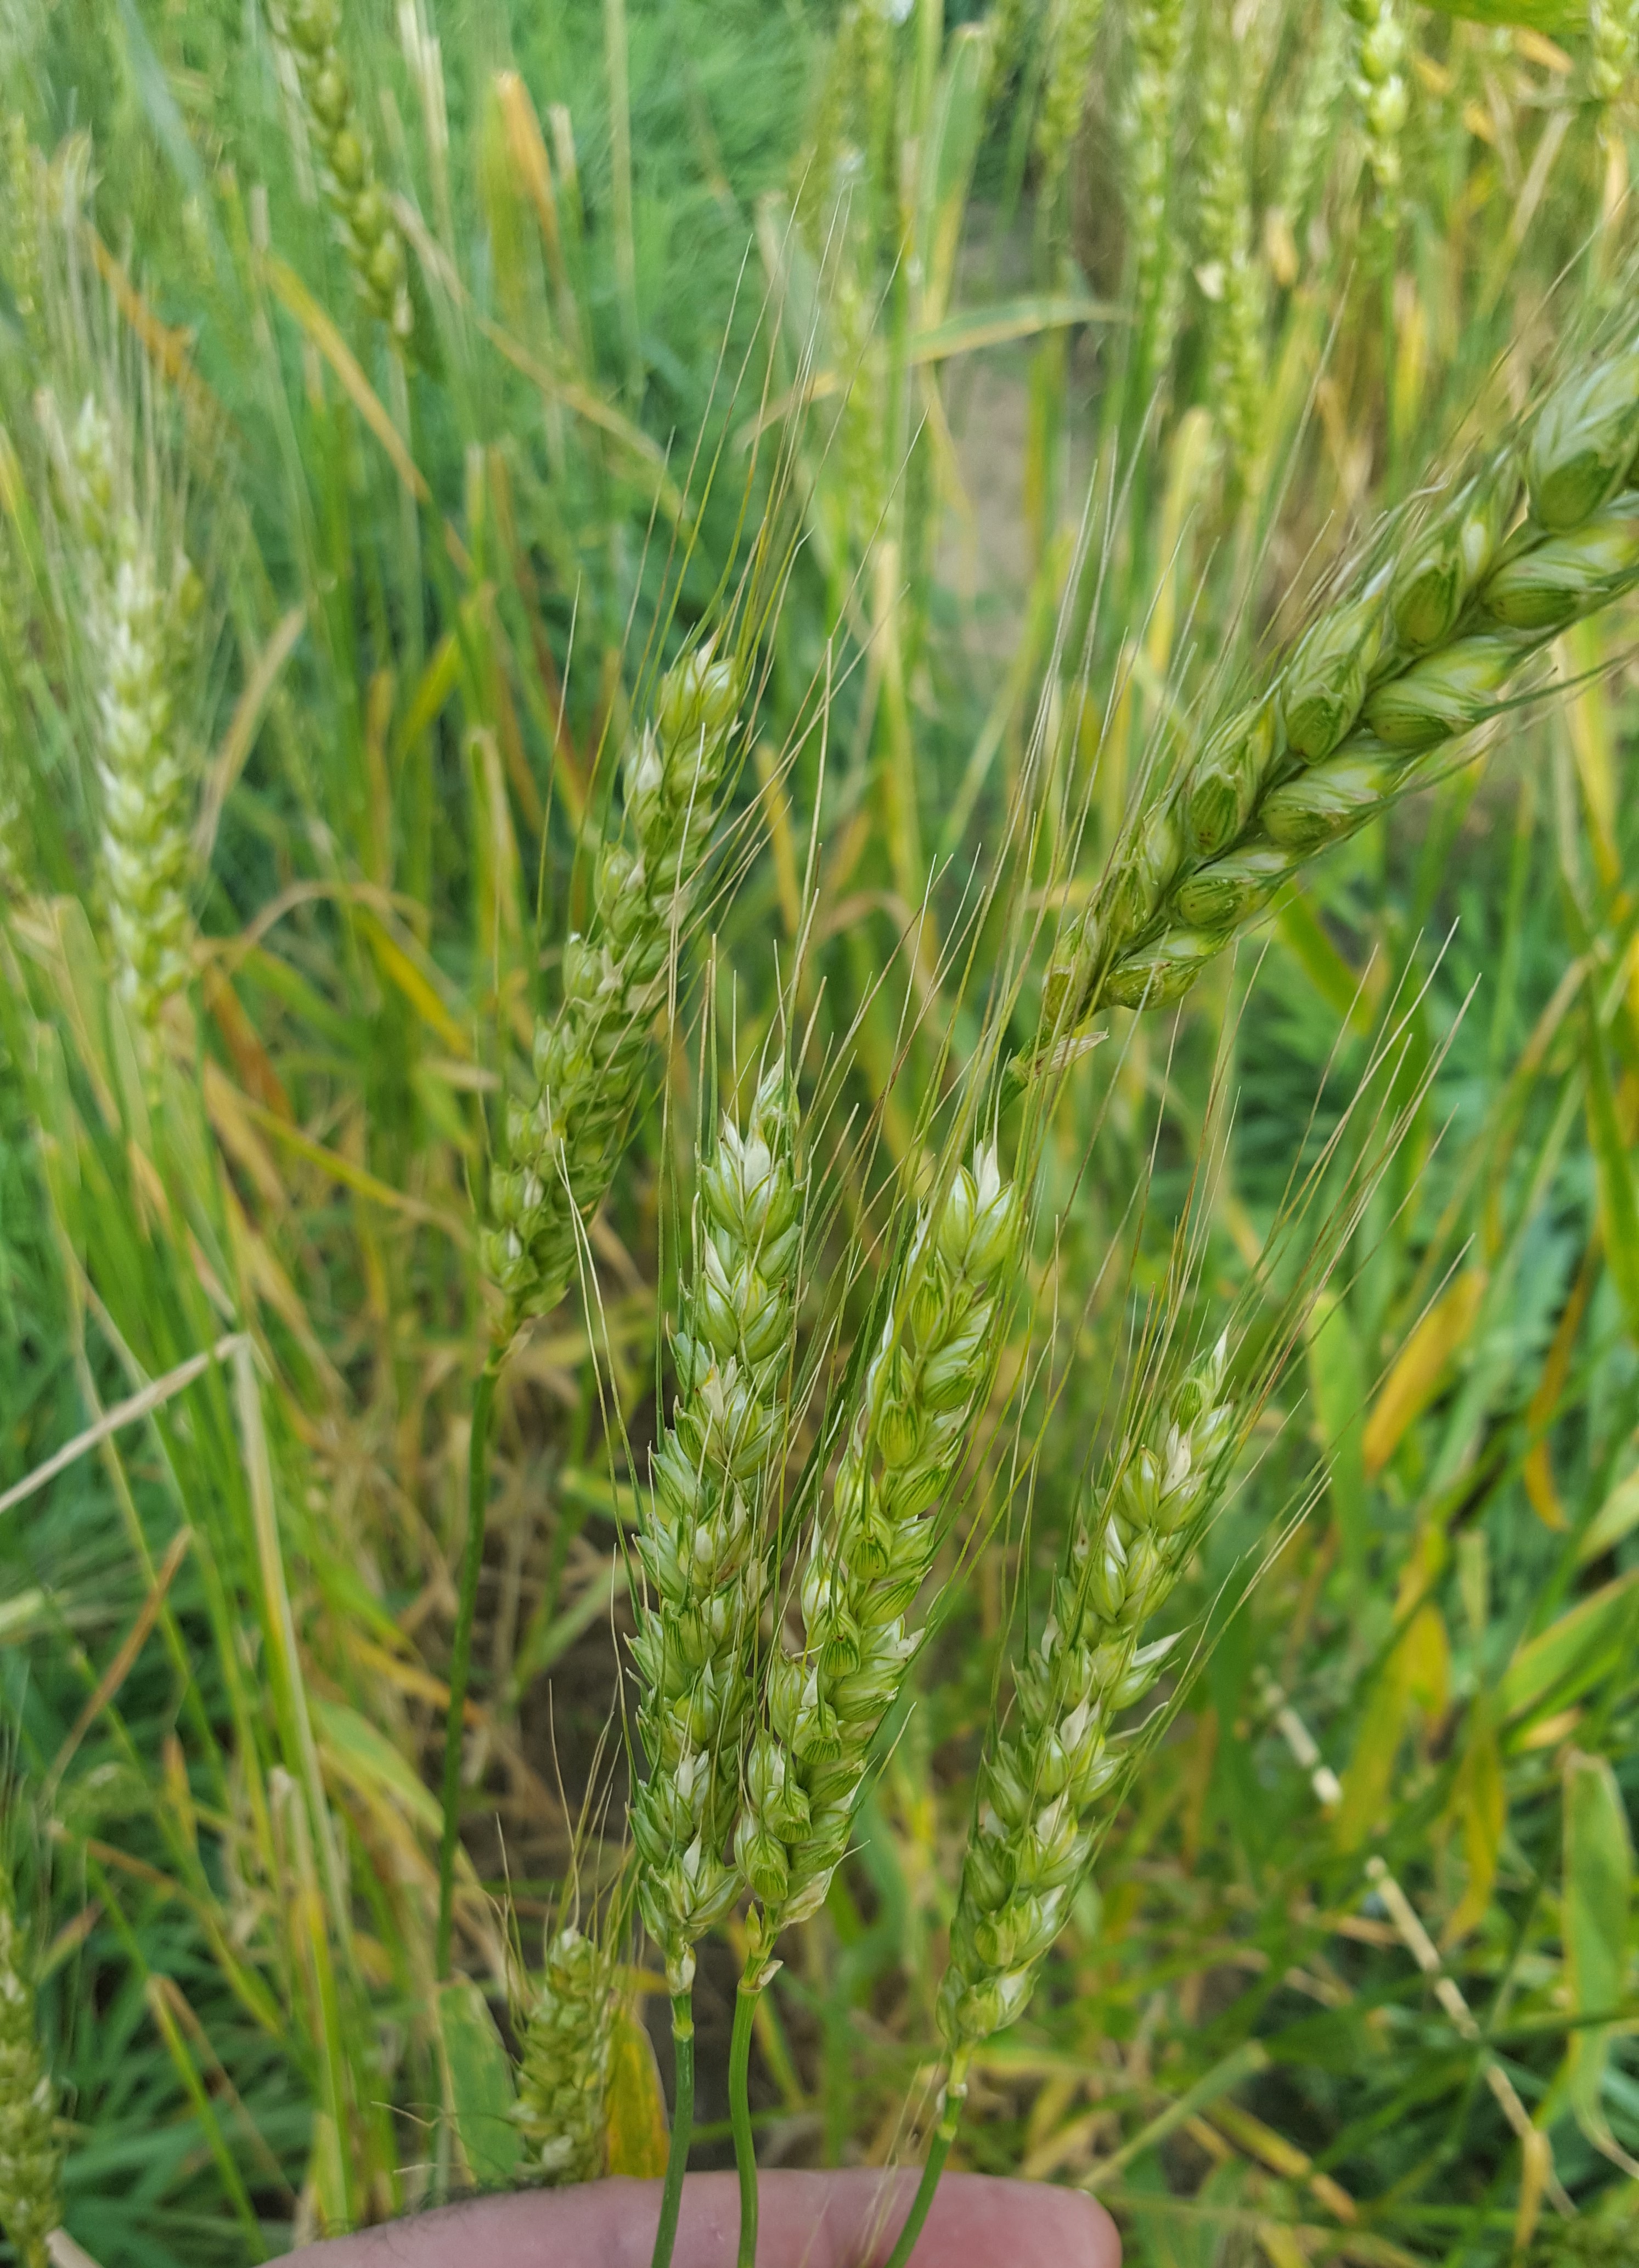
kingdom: Plantae
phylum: Tracheophyta
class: Liliopsida
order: Poales
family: Poaceae
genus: Triticum
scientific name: Triticum aestivum
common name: Common wheat
